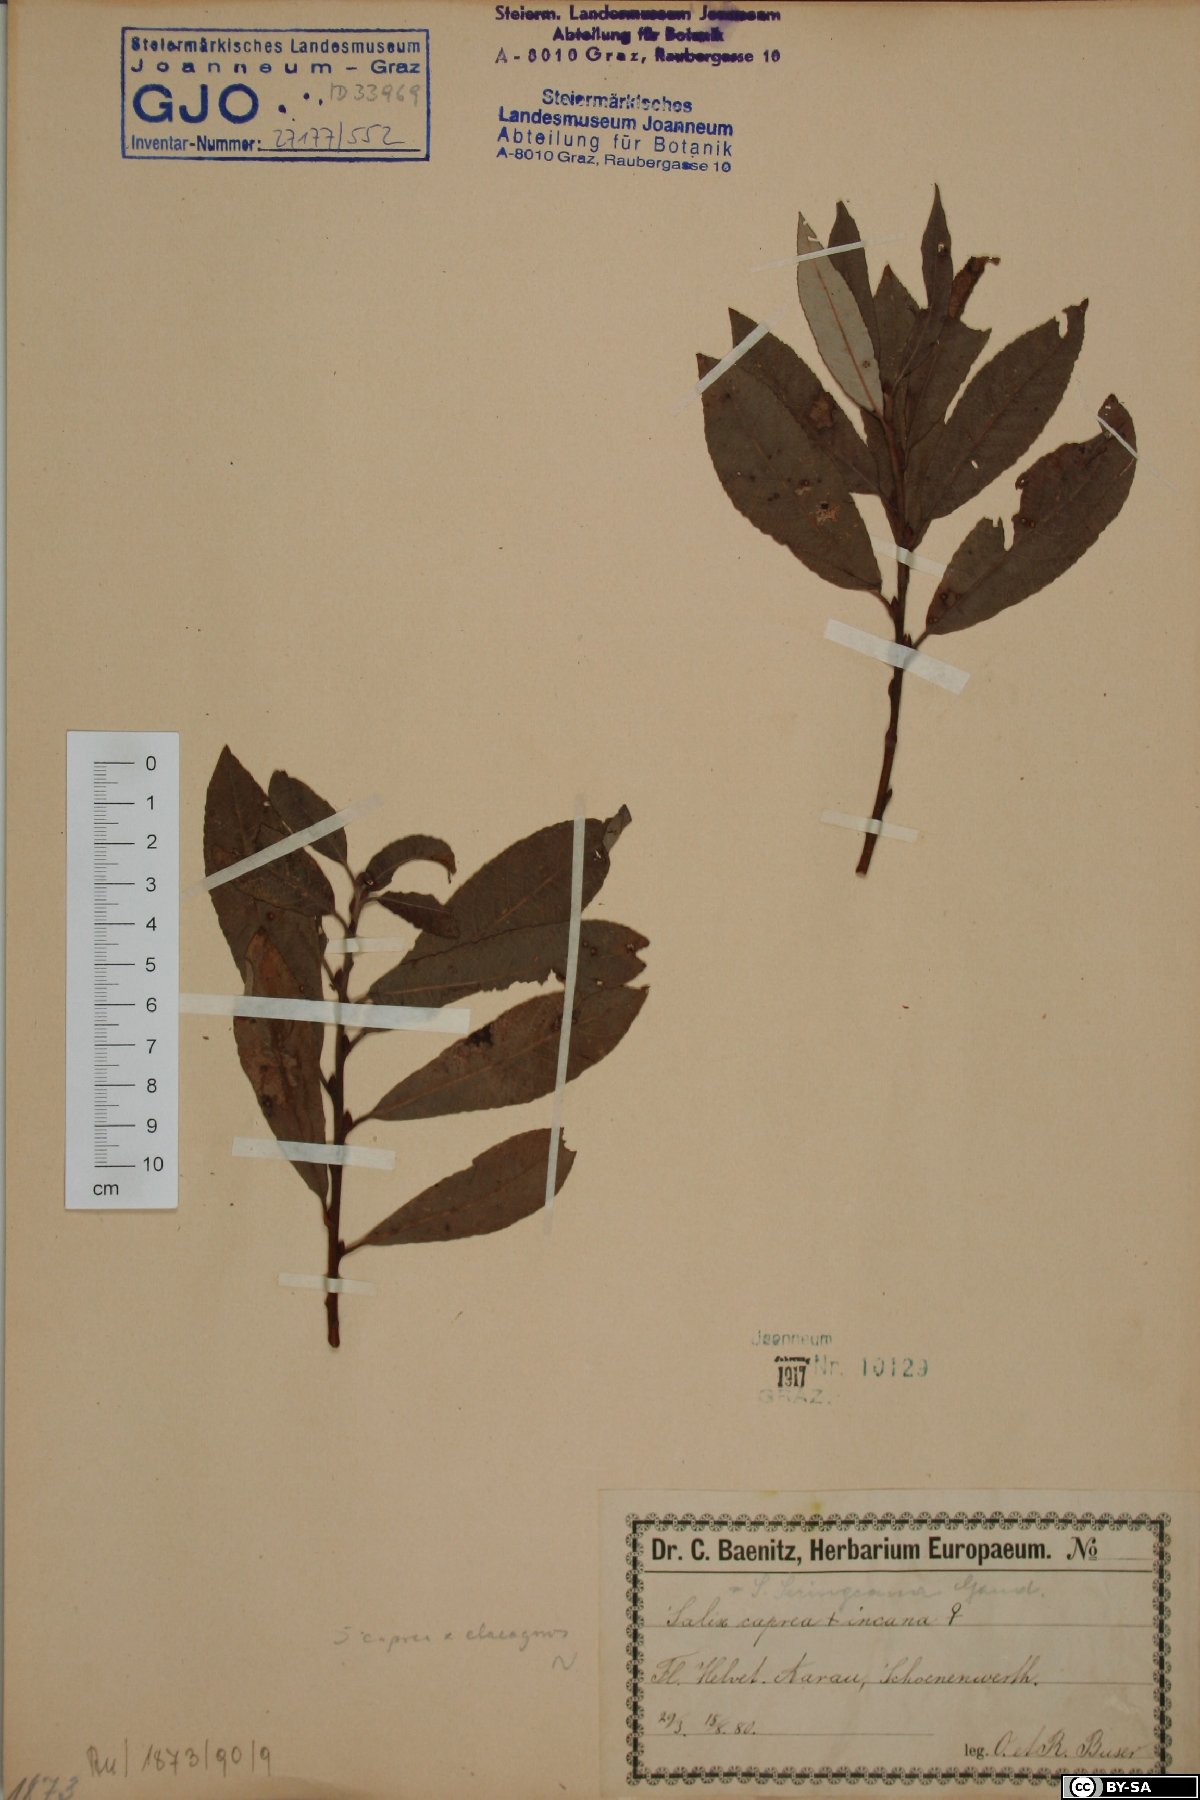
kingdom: Plantae
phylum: Tracheophyta
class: Magnoliopsida
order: Malpighiales
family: Salicaceae
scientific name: Salicaceae
